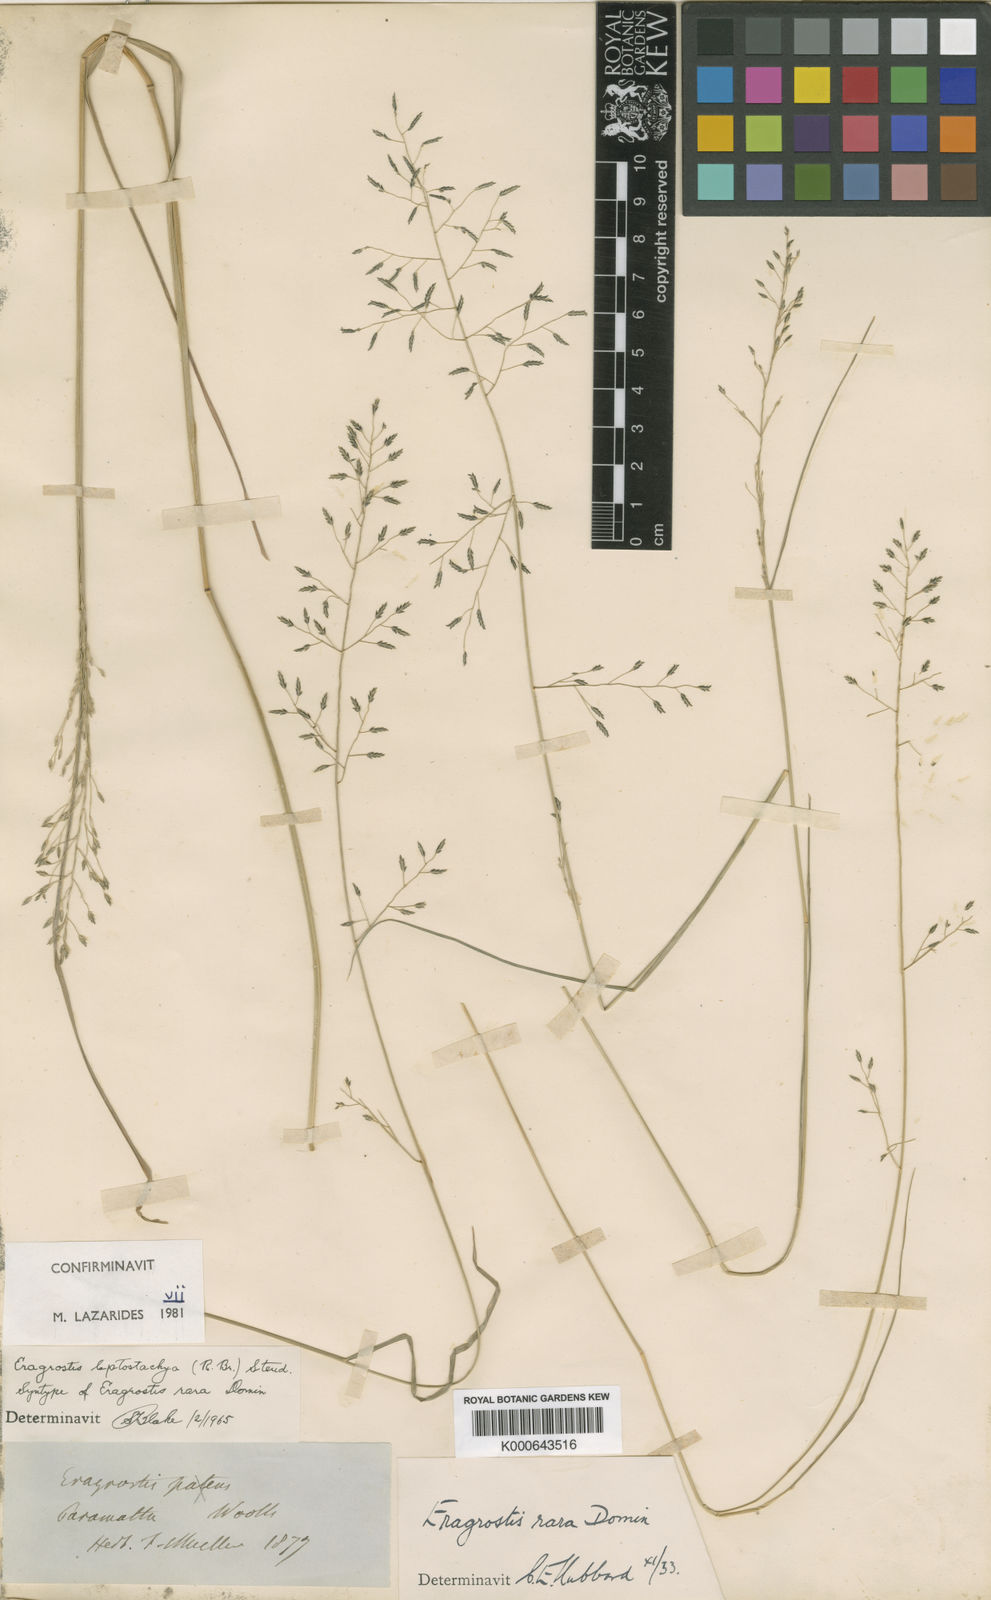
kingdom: Plantae
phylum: Tracheophyta
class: Liliopsida
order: Poales
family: Poaceae
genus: Eragrostis
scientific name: Eragrostis leptostachya
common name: Australian lovegrass
